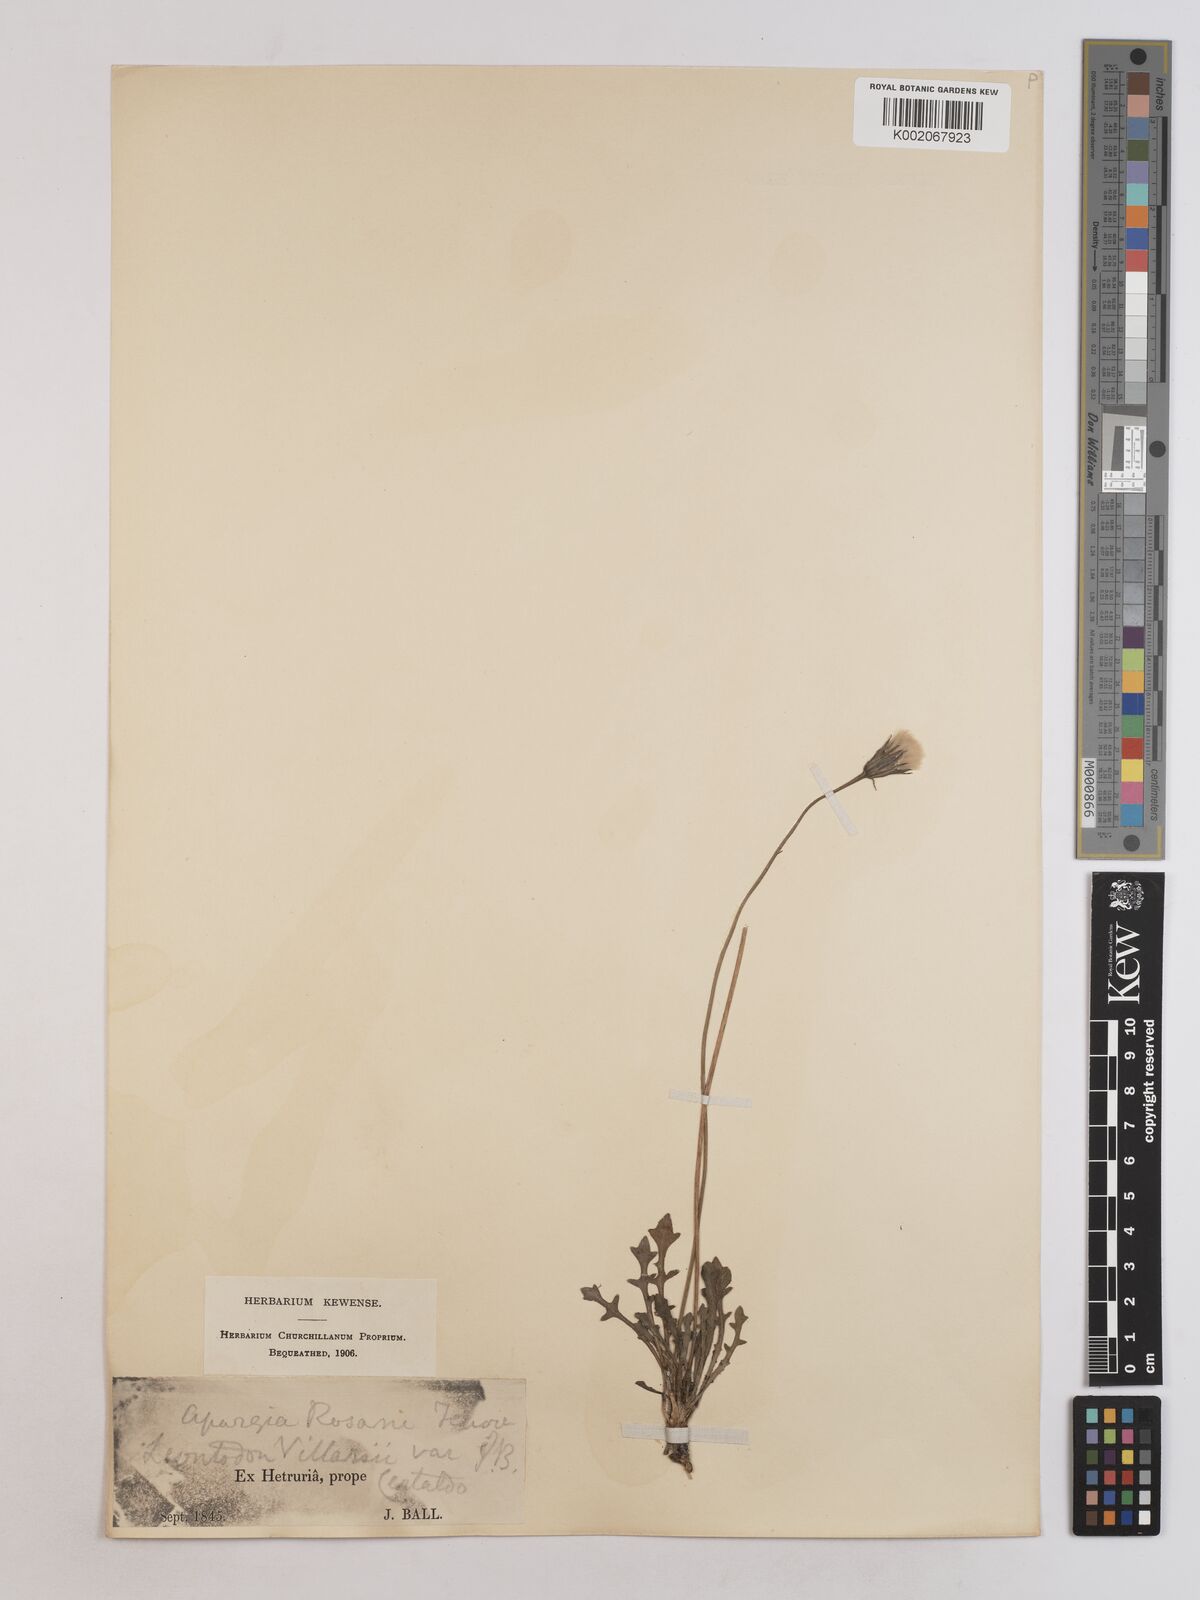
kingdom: Plantae
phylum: Tracheophyta
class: Magnoliopsida
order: Asterales
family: Asteraceae
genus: Leontodon
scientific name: Leontodon hirtus
